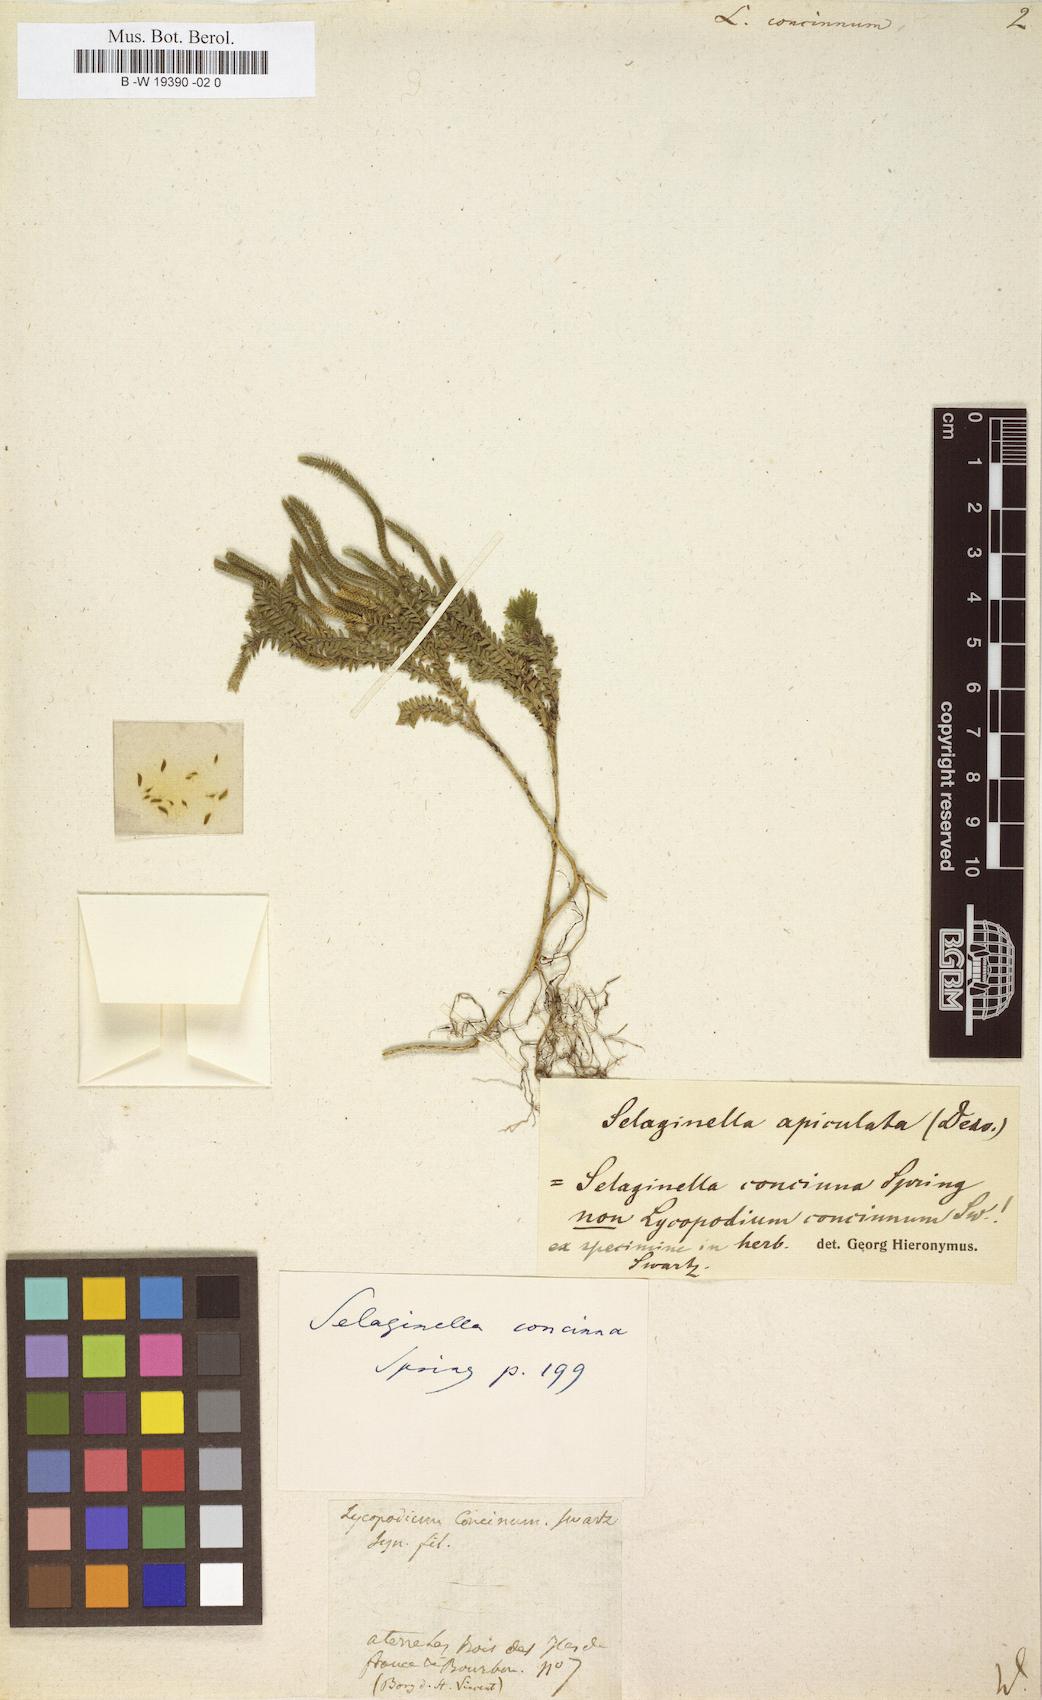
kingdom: Plantae
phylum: Tracheophyta
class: Lycopodiopsida
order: Lycopodiales
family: Lycopodiaceae
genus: Lycopodium
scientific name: Lycopodium clavatum
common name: Stag's-horn clubmoss
